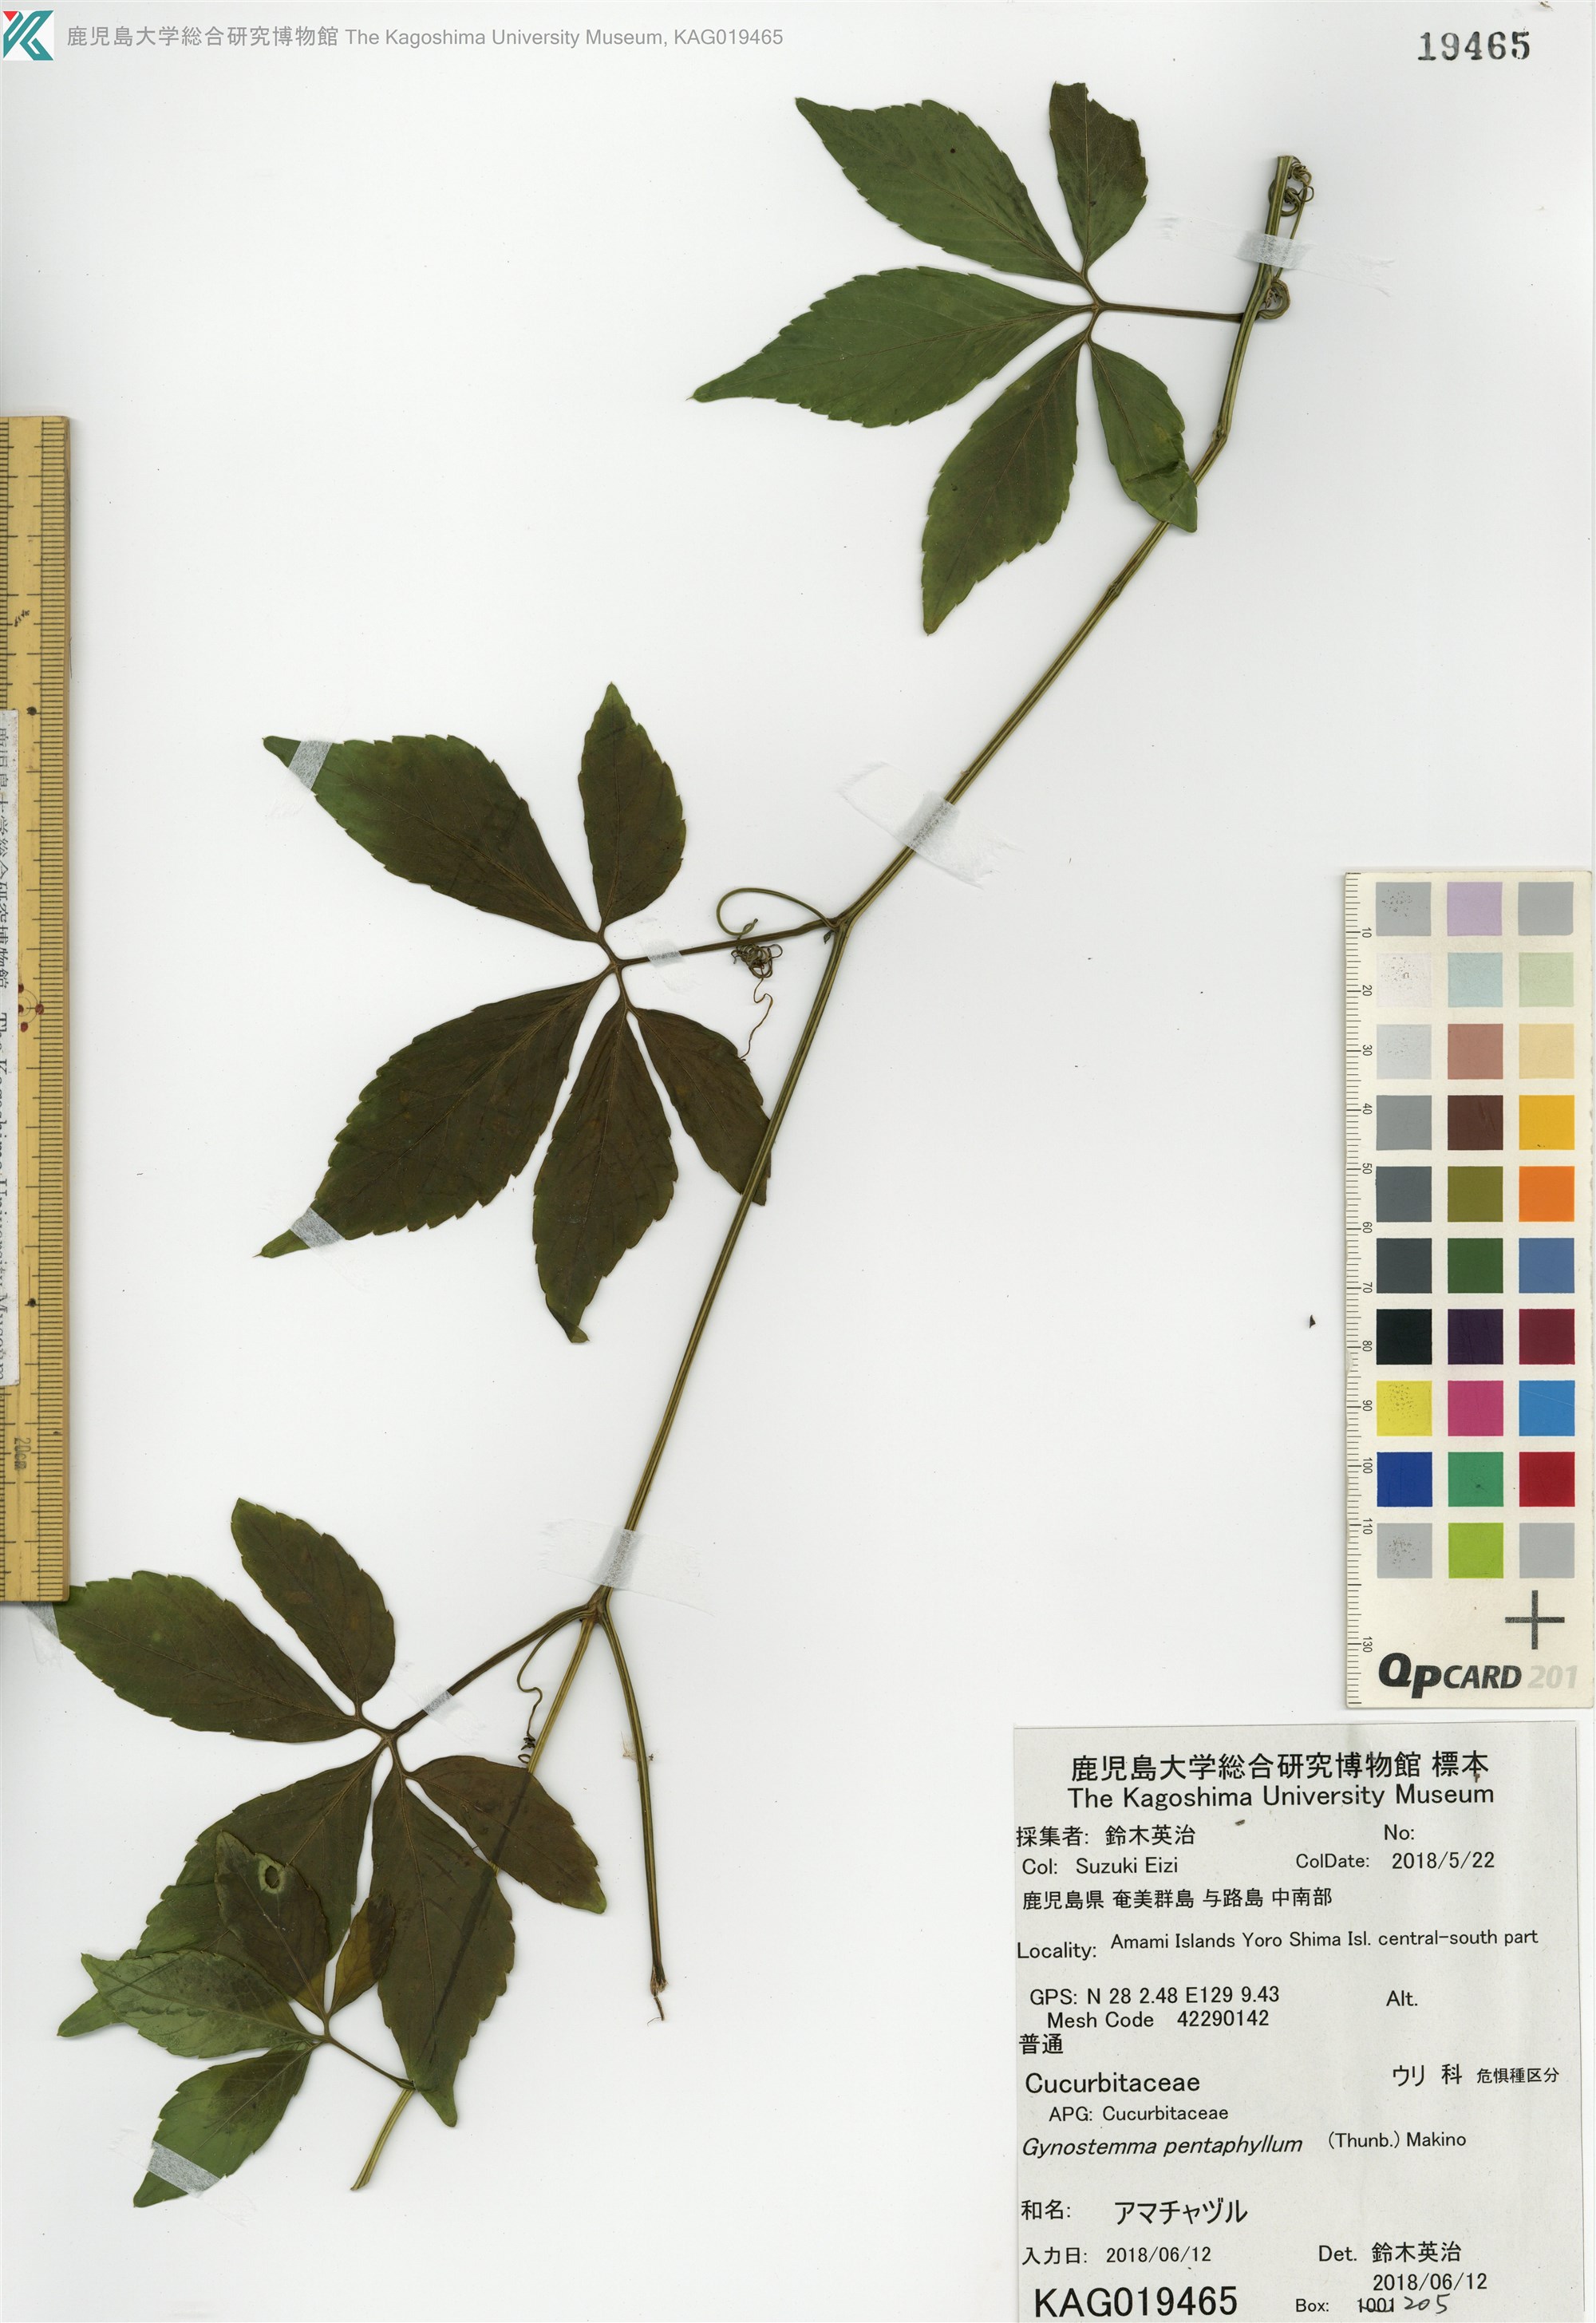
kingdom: Plantae
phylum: Tracheophyta
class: Magnoliopsida
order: Cucurbitales
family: Cucurbitaceae
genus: Gynostemma
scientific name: Gynostemma pentaphyllum
